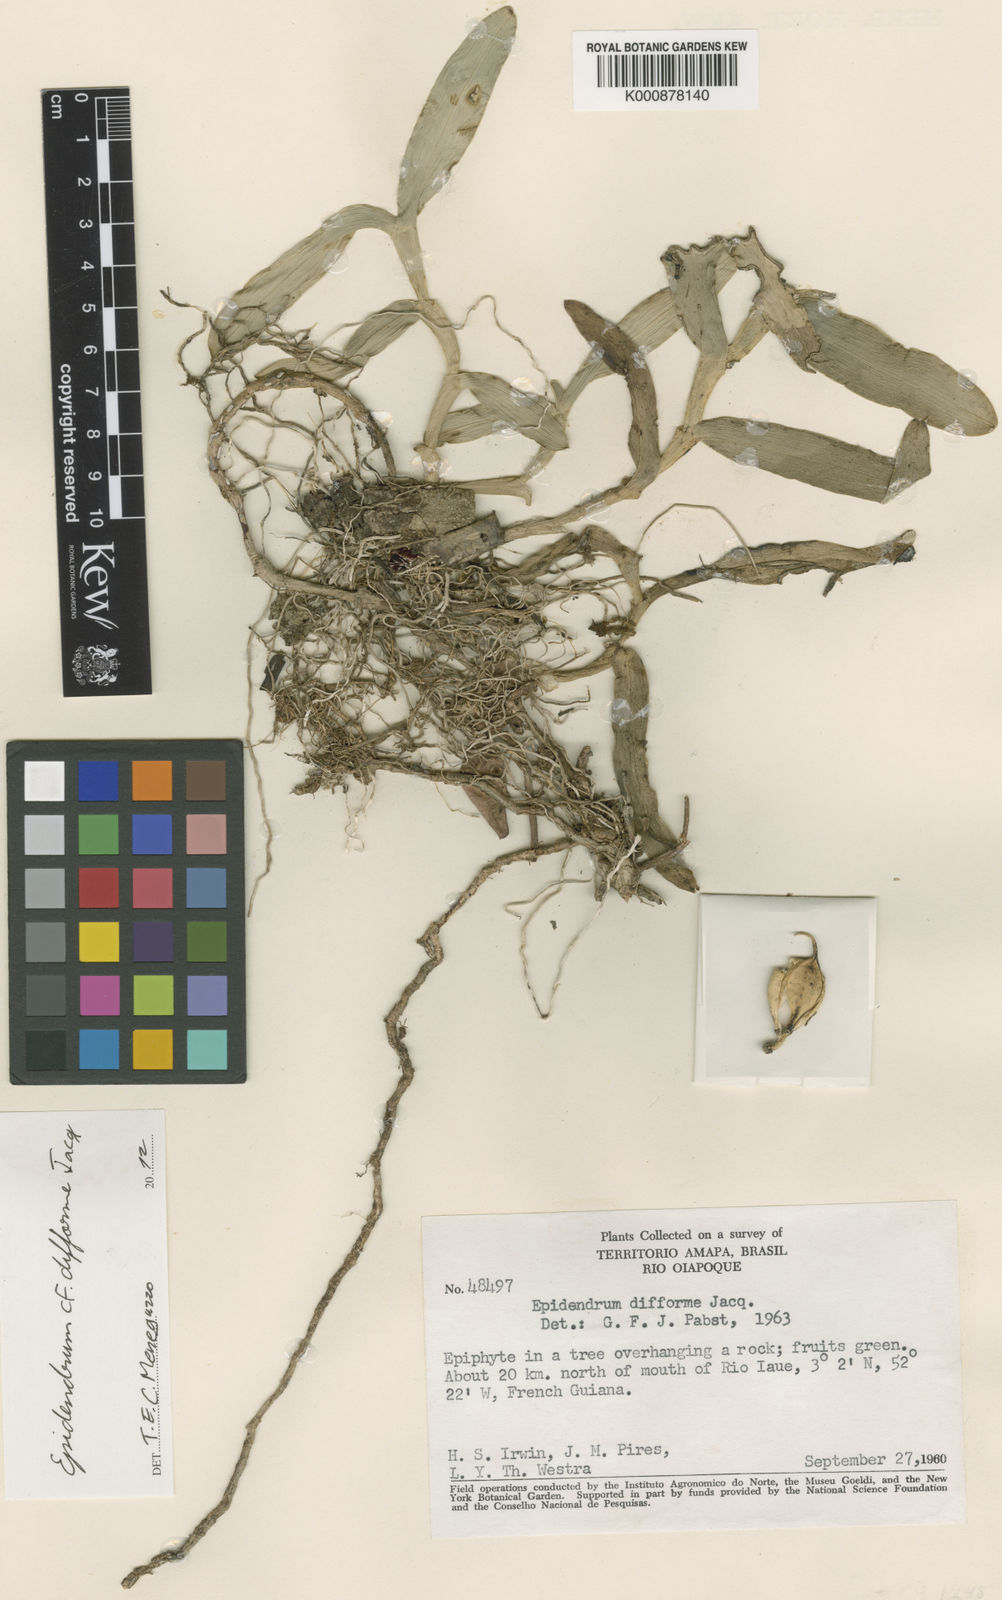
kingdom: Plantae
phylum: Tracheophyta
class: Liliopsida
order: Asparagales
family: Orchidaceae
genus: Epidendrum
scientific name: Epidendrum difforme
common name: Umbrella epidendrum
